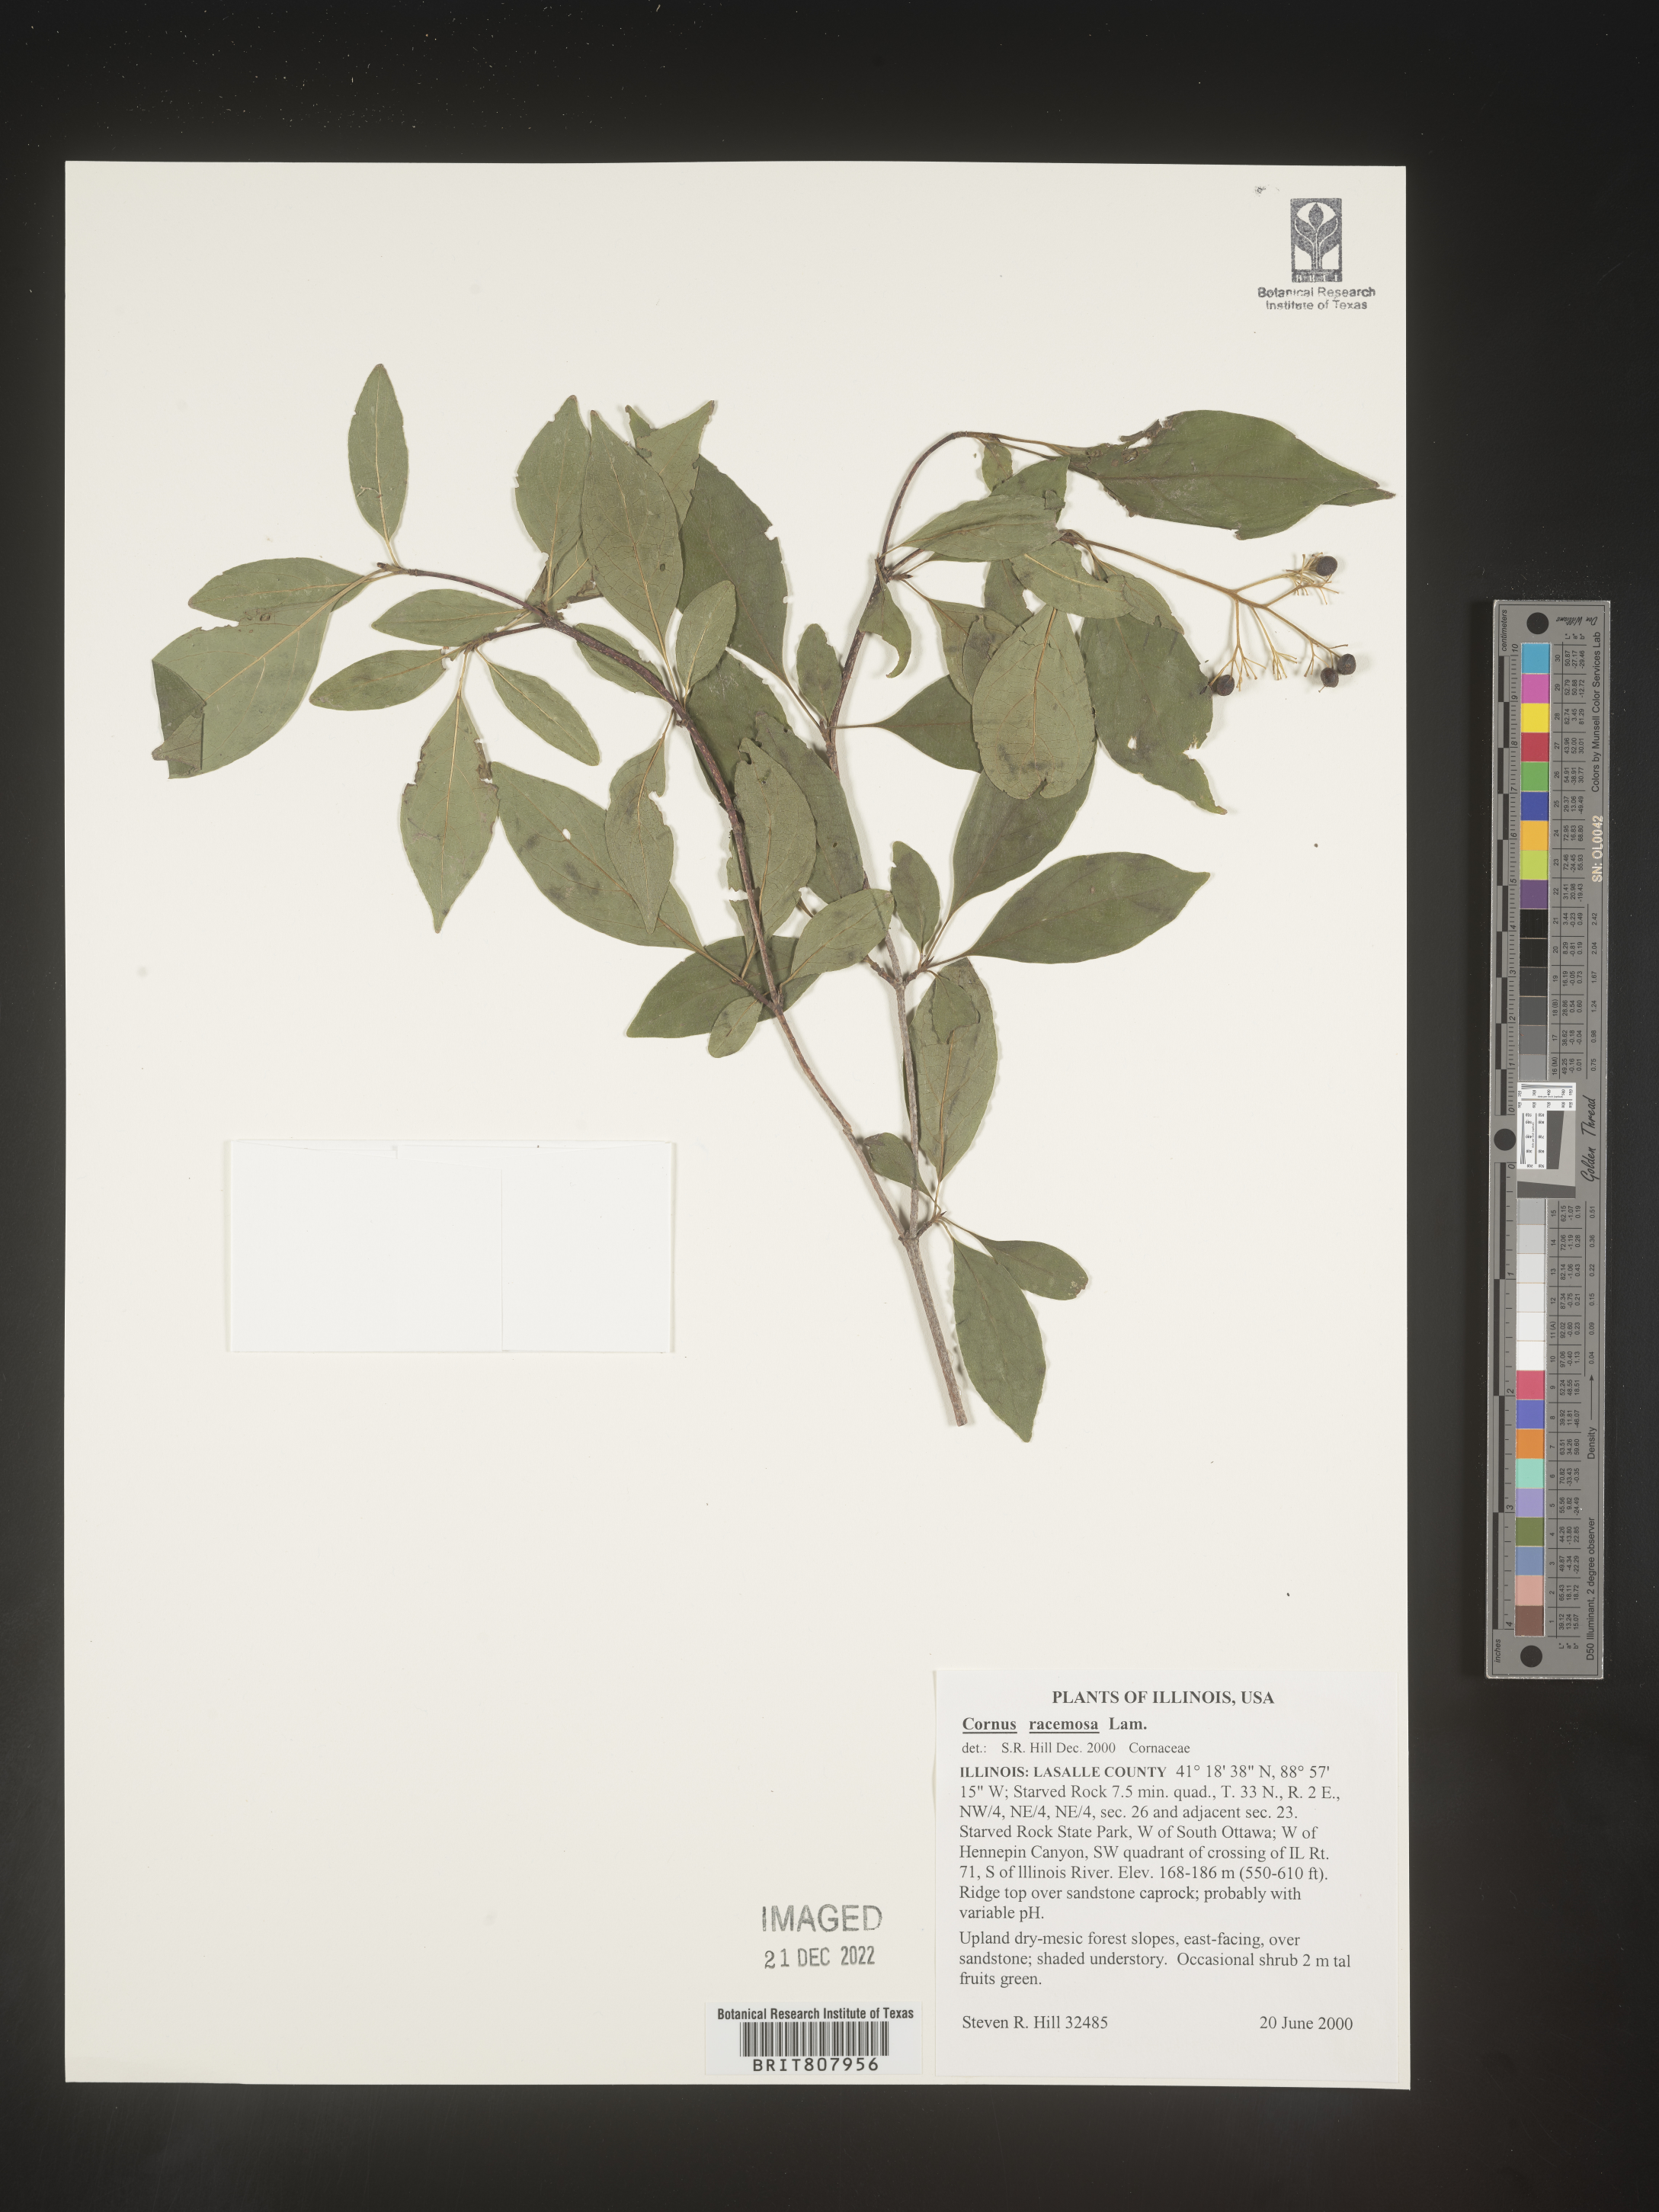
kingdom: Plantae
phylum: Tracheophyta
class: Magnoliopsida
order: Cornales
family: Cornaceae
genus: Cornus
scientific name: Cornus racemosa
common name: Panicled dogwood
